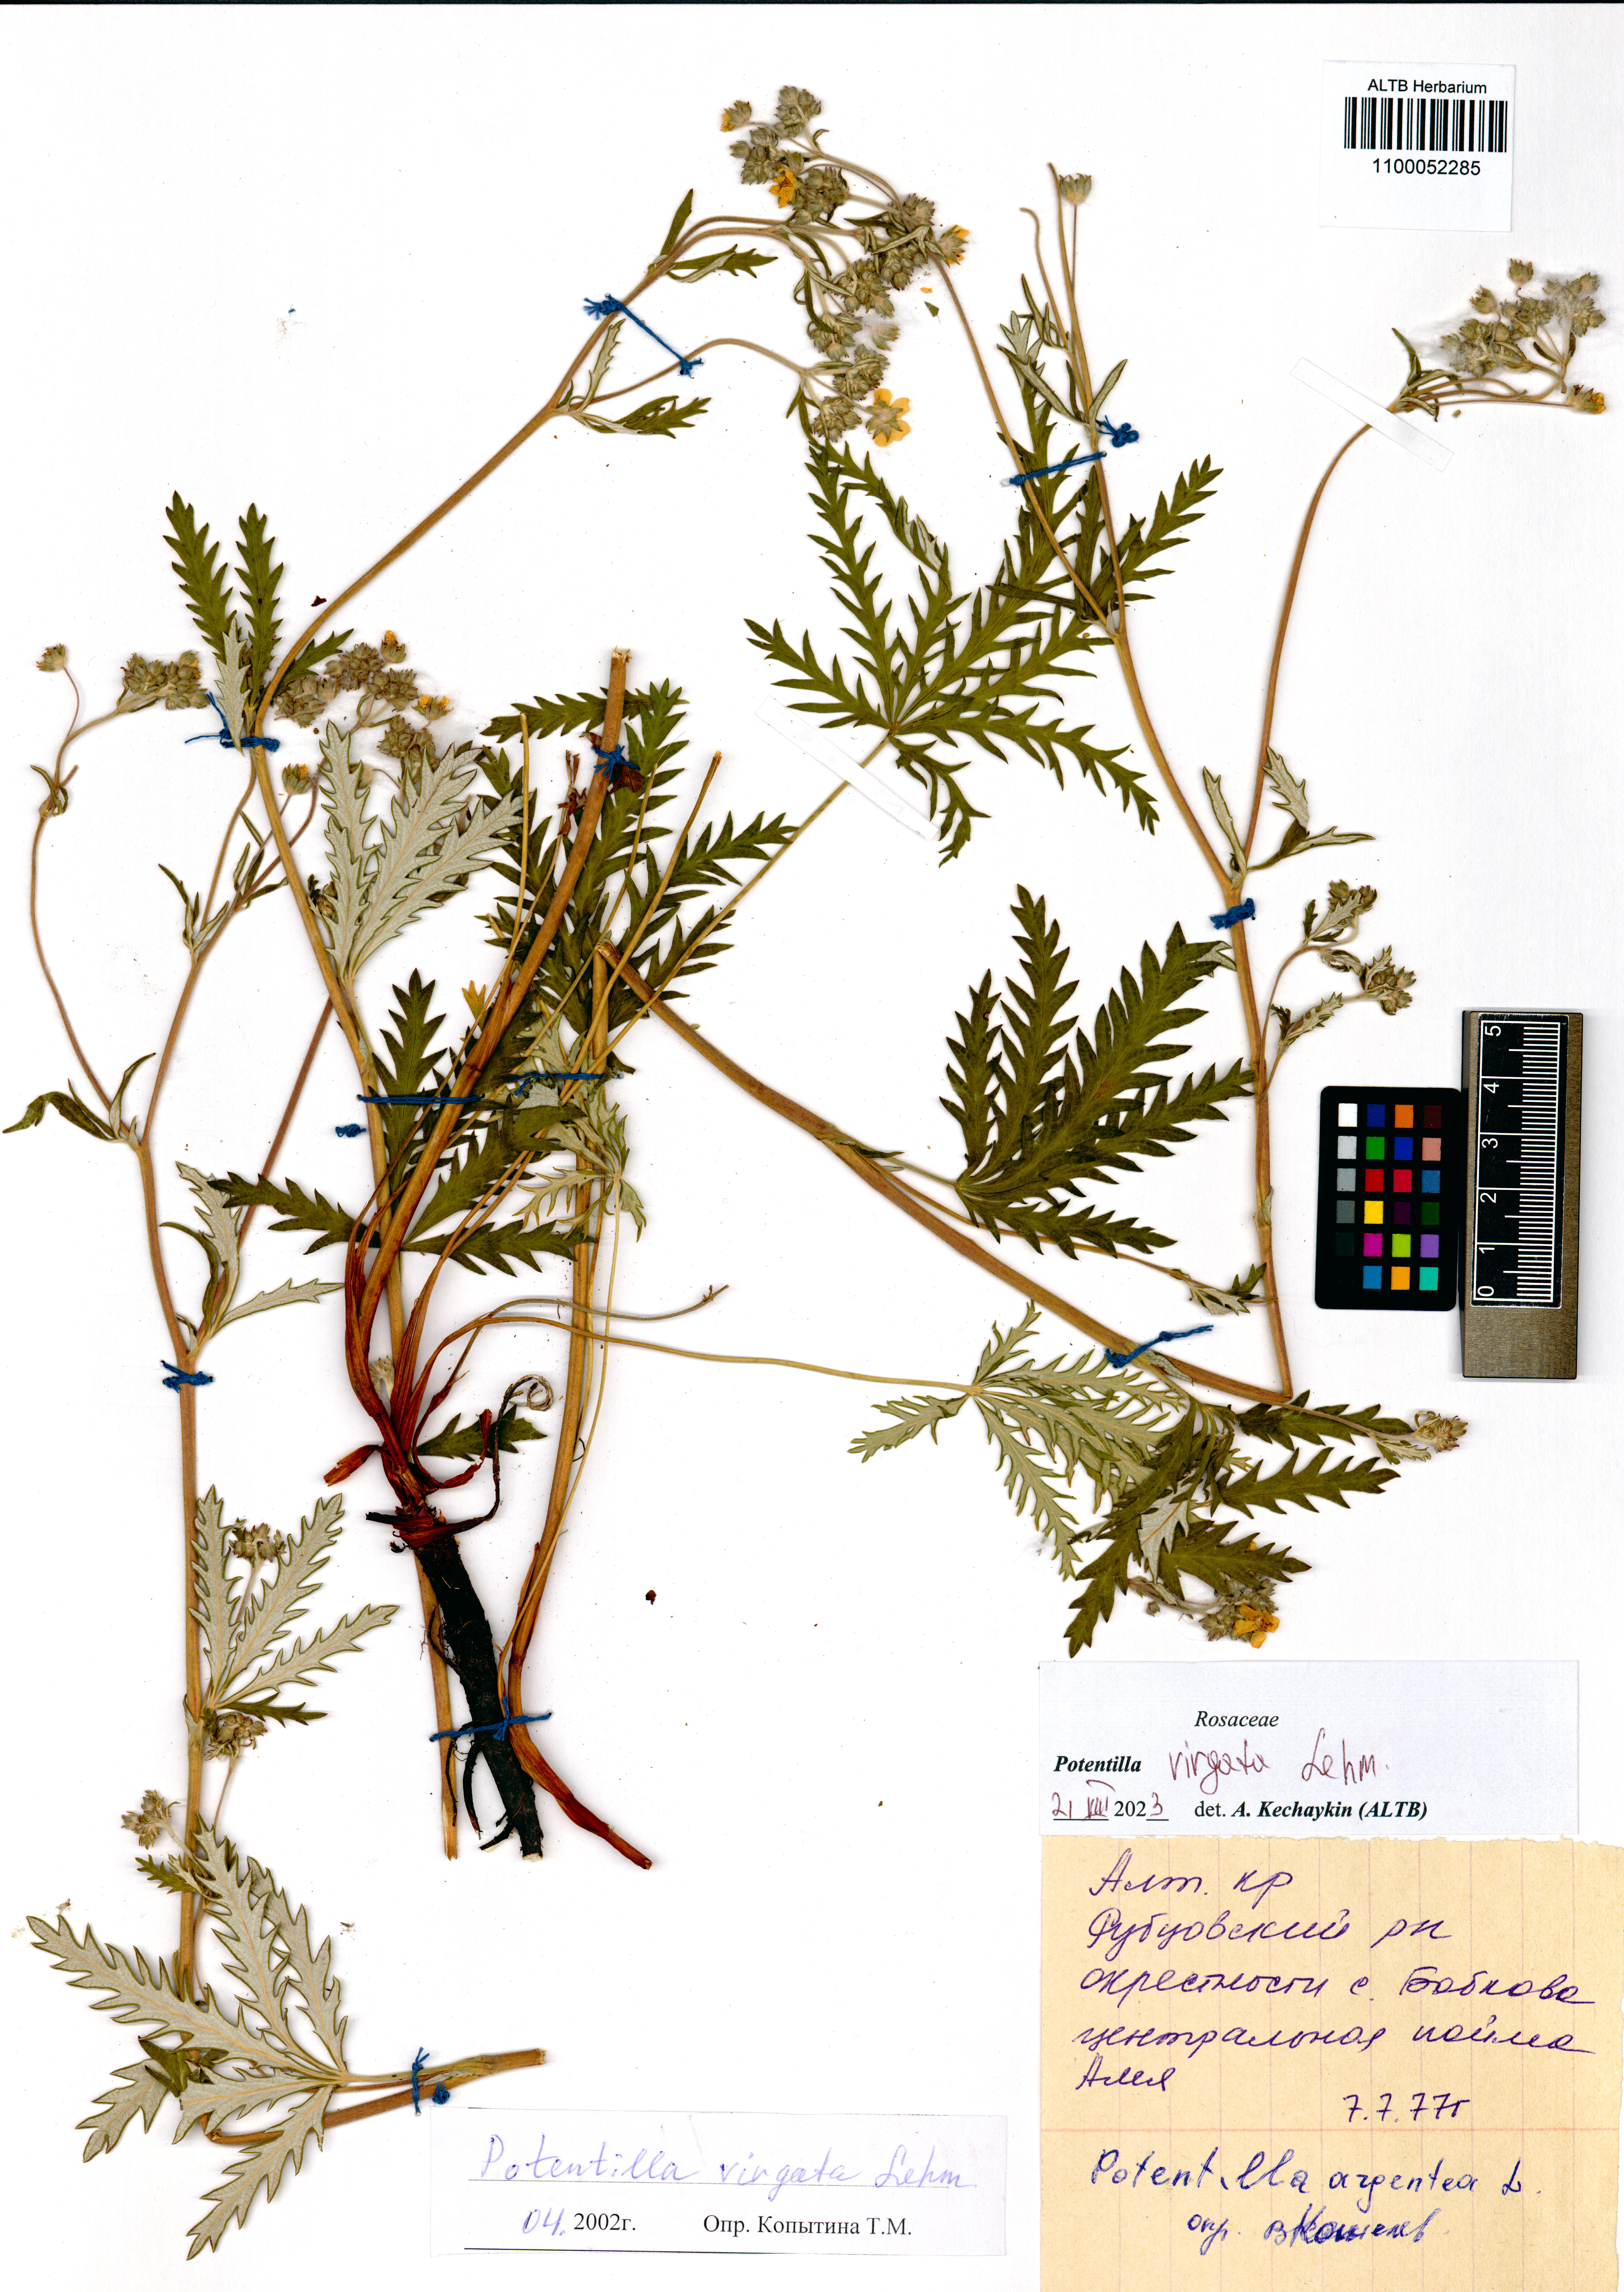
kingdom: Plantae
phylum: Tracheophyta
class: Magnoliopsida
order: Rosales
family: Rosaceae
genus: Potentilla
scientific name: Potentilla virgata
